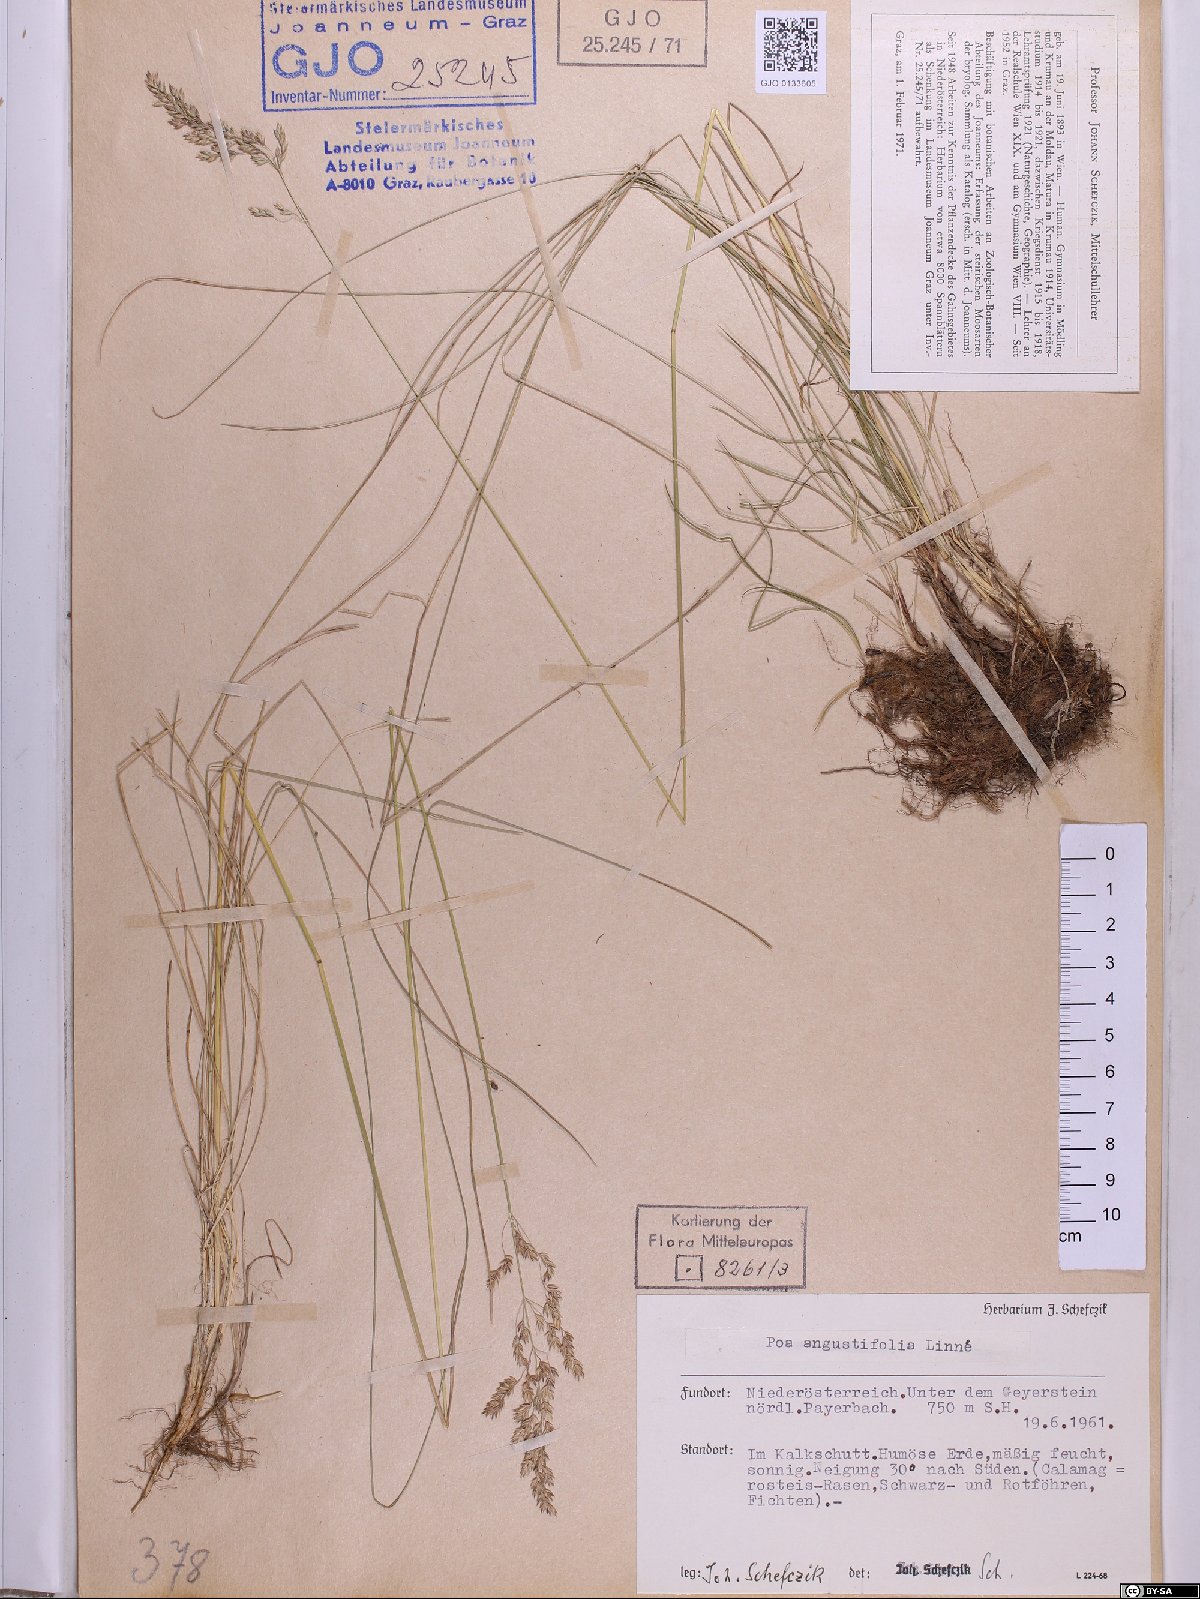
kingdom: Plantae
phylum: Tracheophyta
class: Liliopsida
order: Poales
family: Poaceae
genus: Poa
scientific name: Poa angustifolia
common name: Narrow-leaved meadow-grass
